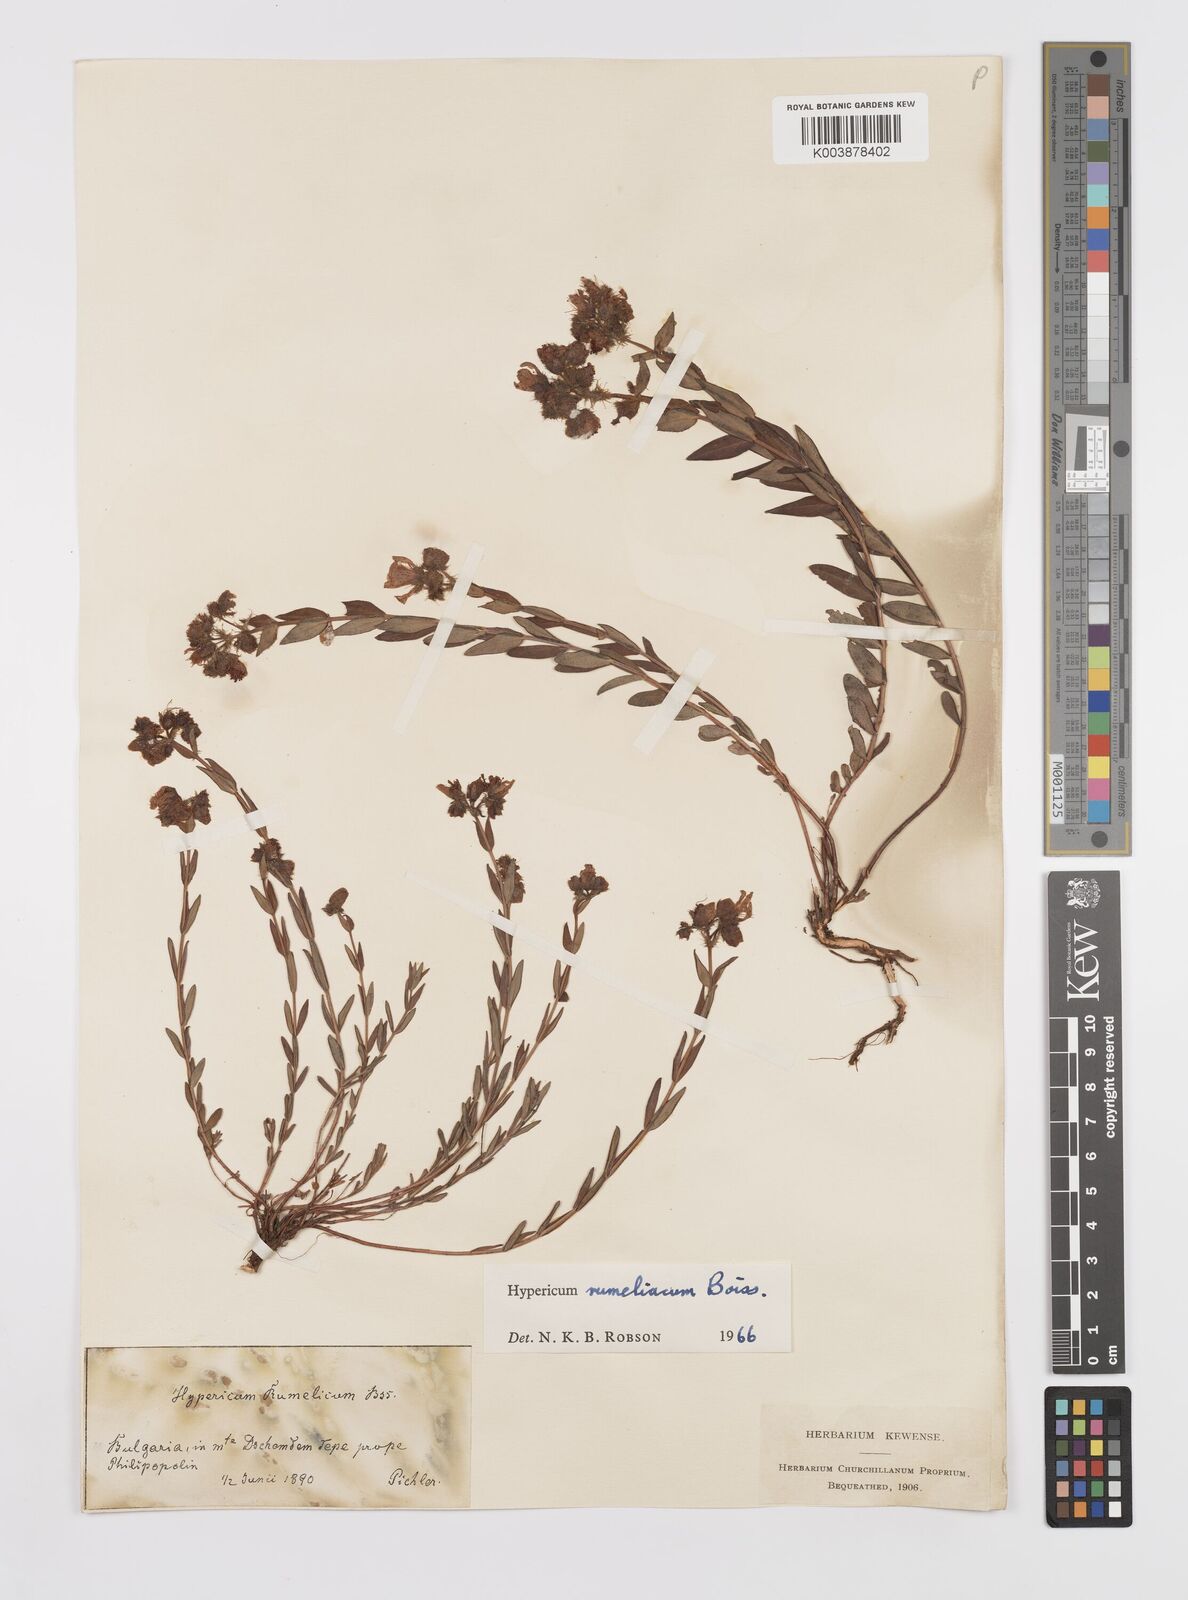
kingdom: Plantae
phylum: Tracheophyta
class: Magnoliopsida
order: Malpighiales
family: Hypericaceae
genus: Hypericum
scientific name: Hypericum rumeliacum
